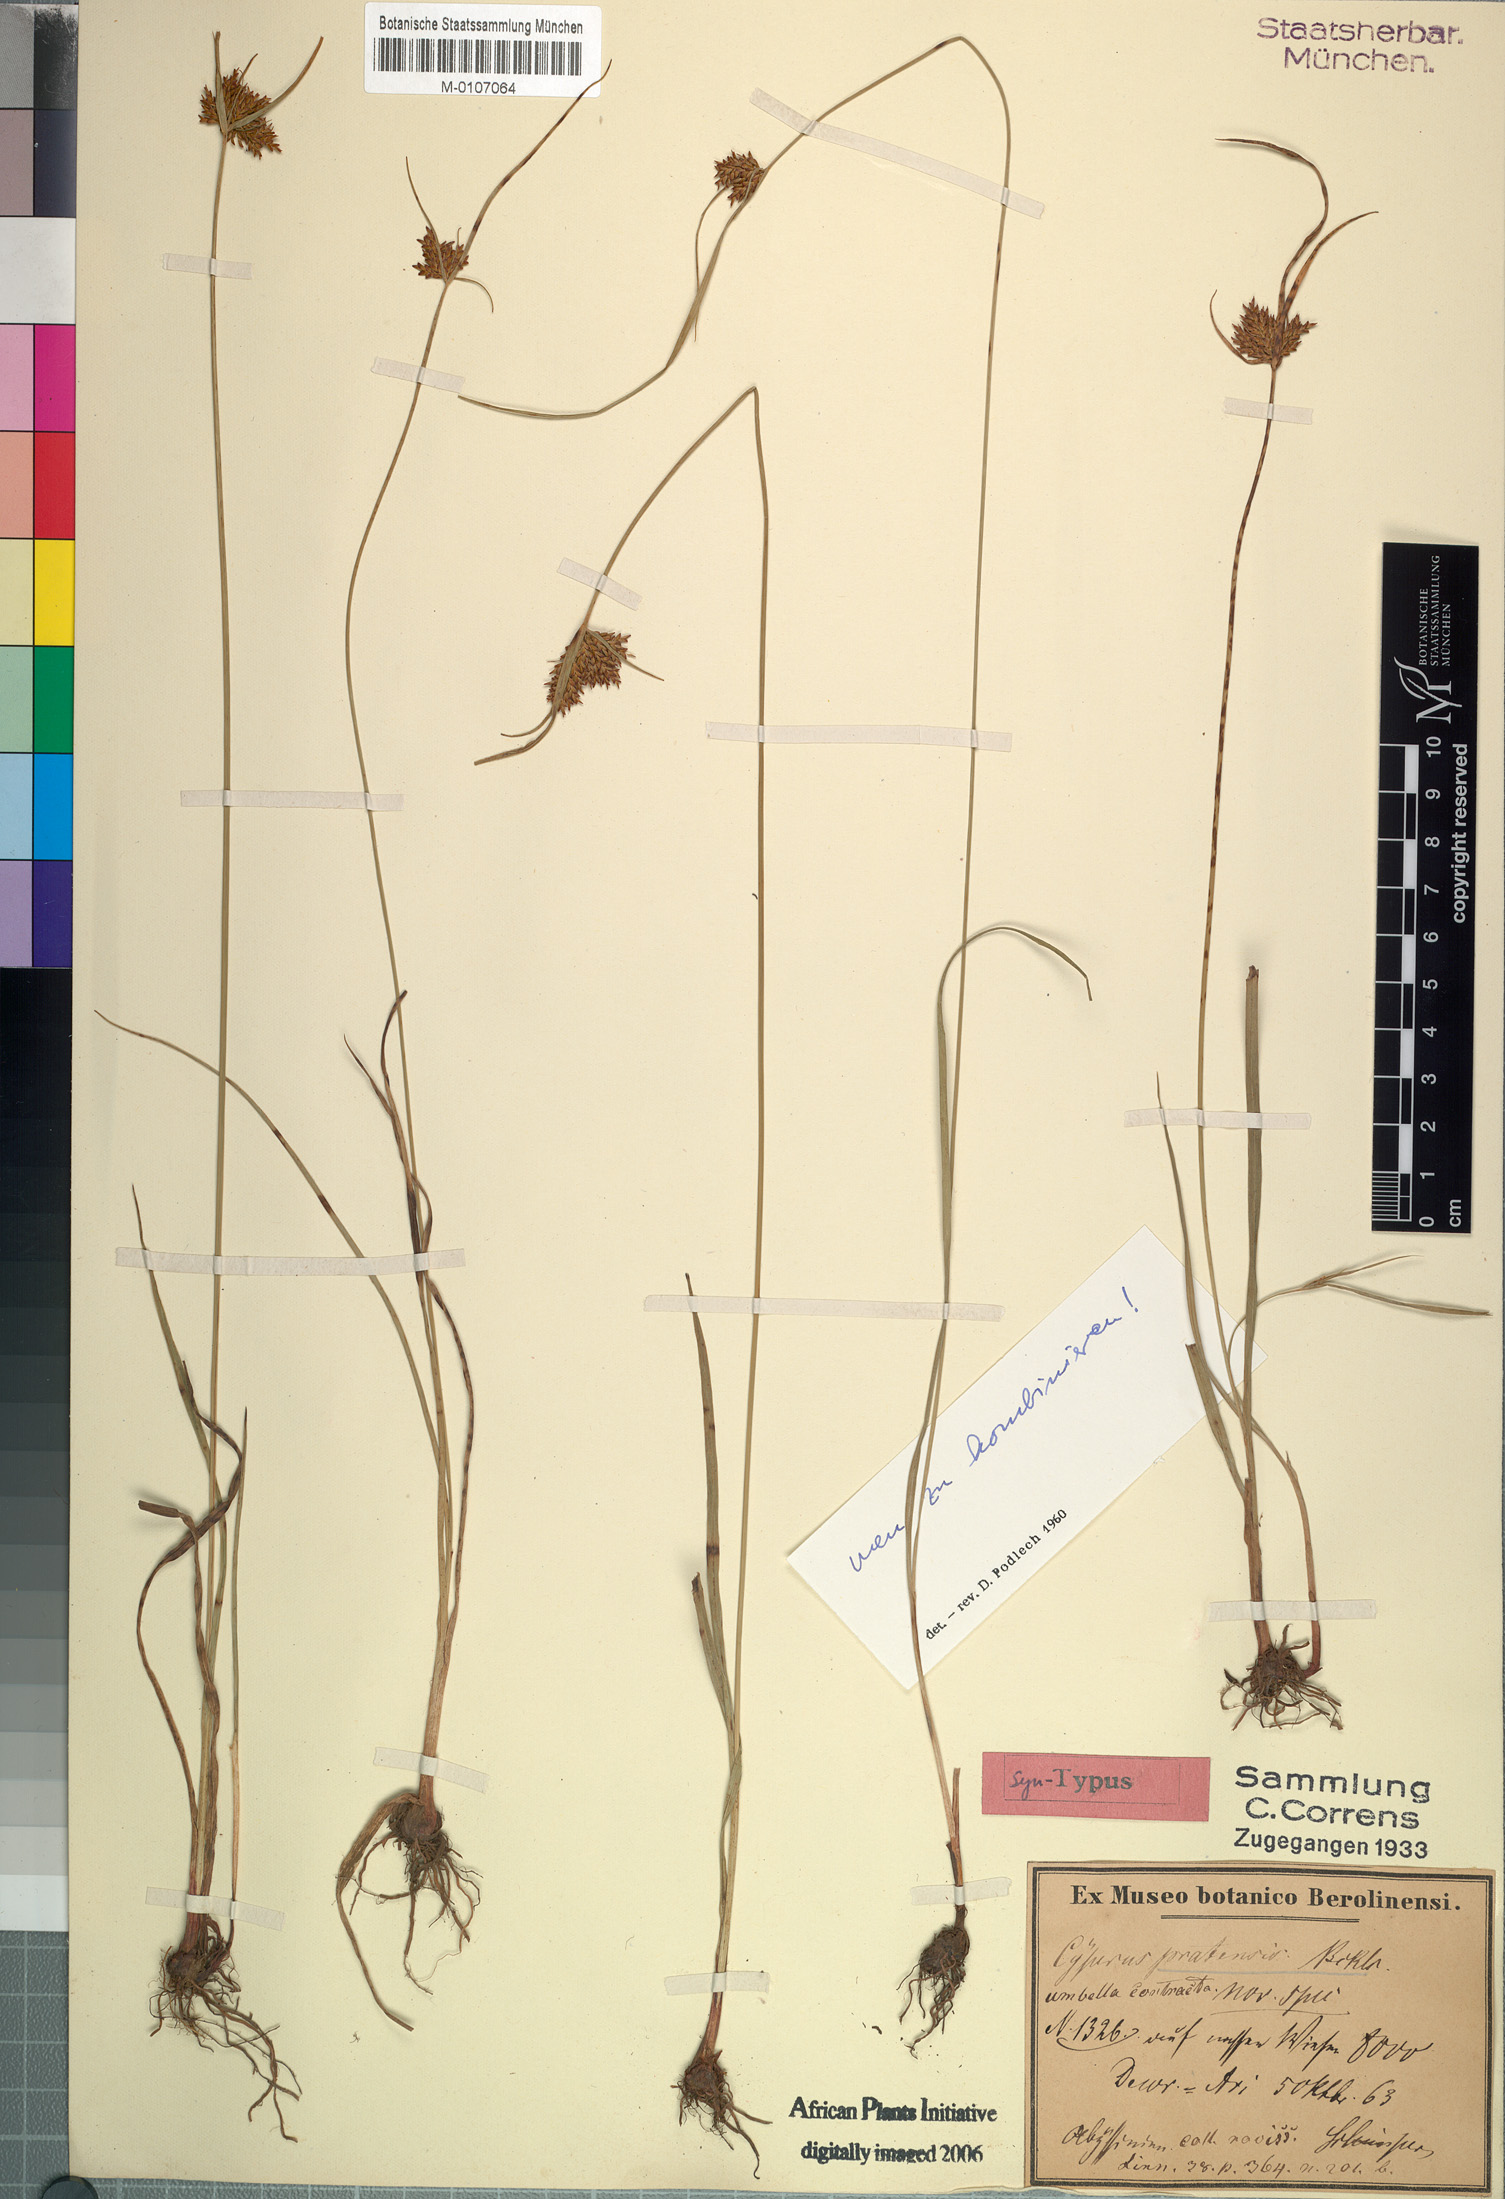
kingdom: Plantae
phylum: Tracheophyta
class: Liliopsida
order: Poales
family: Cyperaceae
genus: Cyperus
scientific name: Cyperus pratensis
